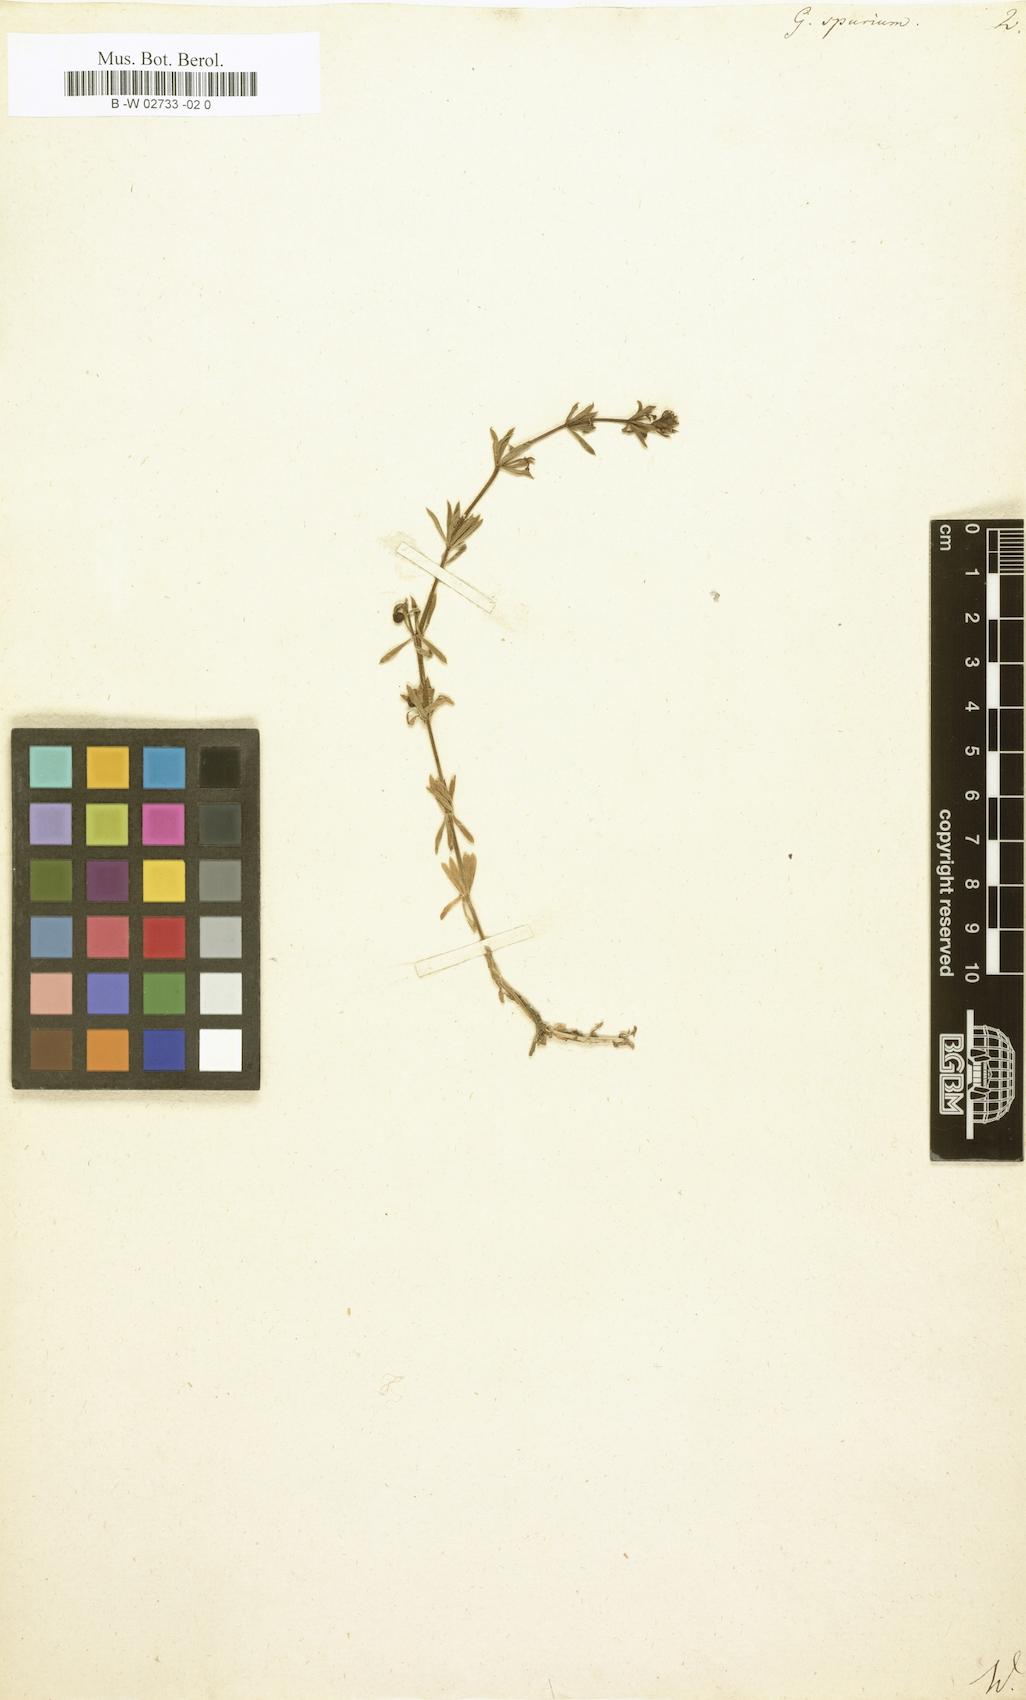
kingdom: Plantae
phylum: Tracheophyta
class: Magnoliopsida
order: Gentianales
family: Rubiaceae
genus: Galium
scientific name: Galium spurium
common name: False cleavers
